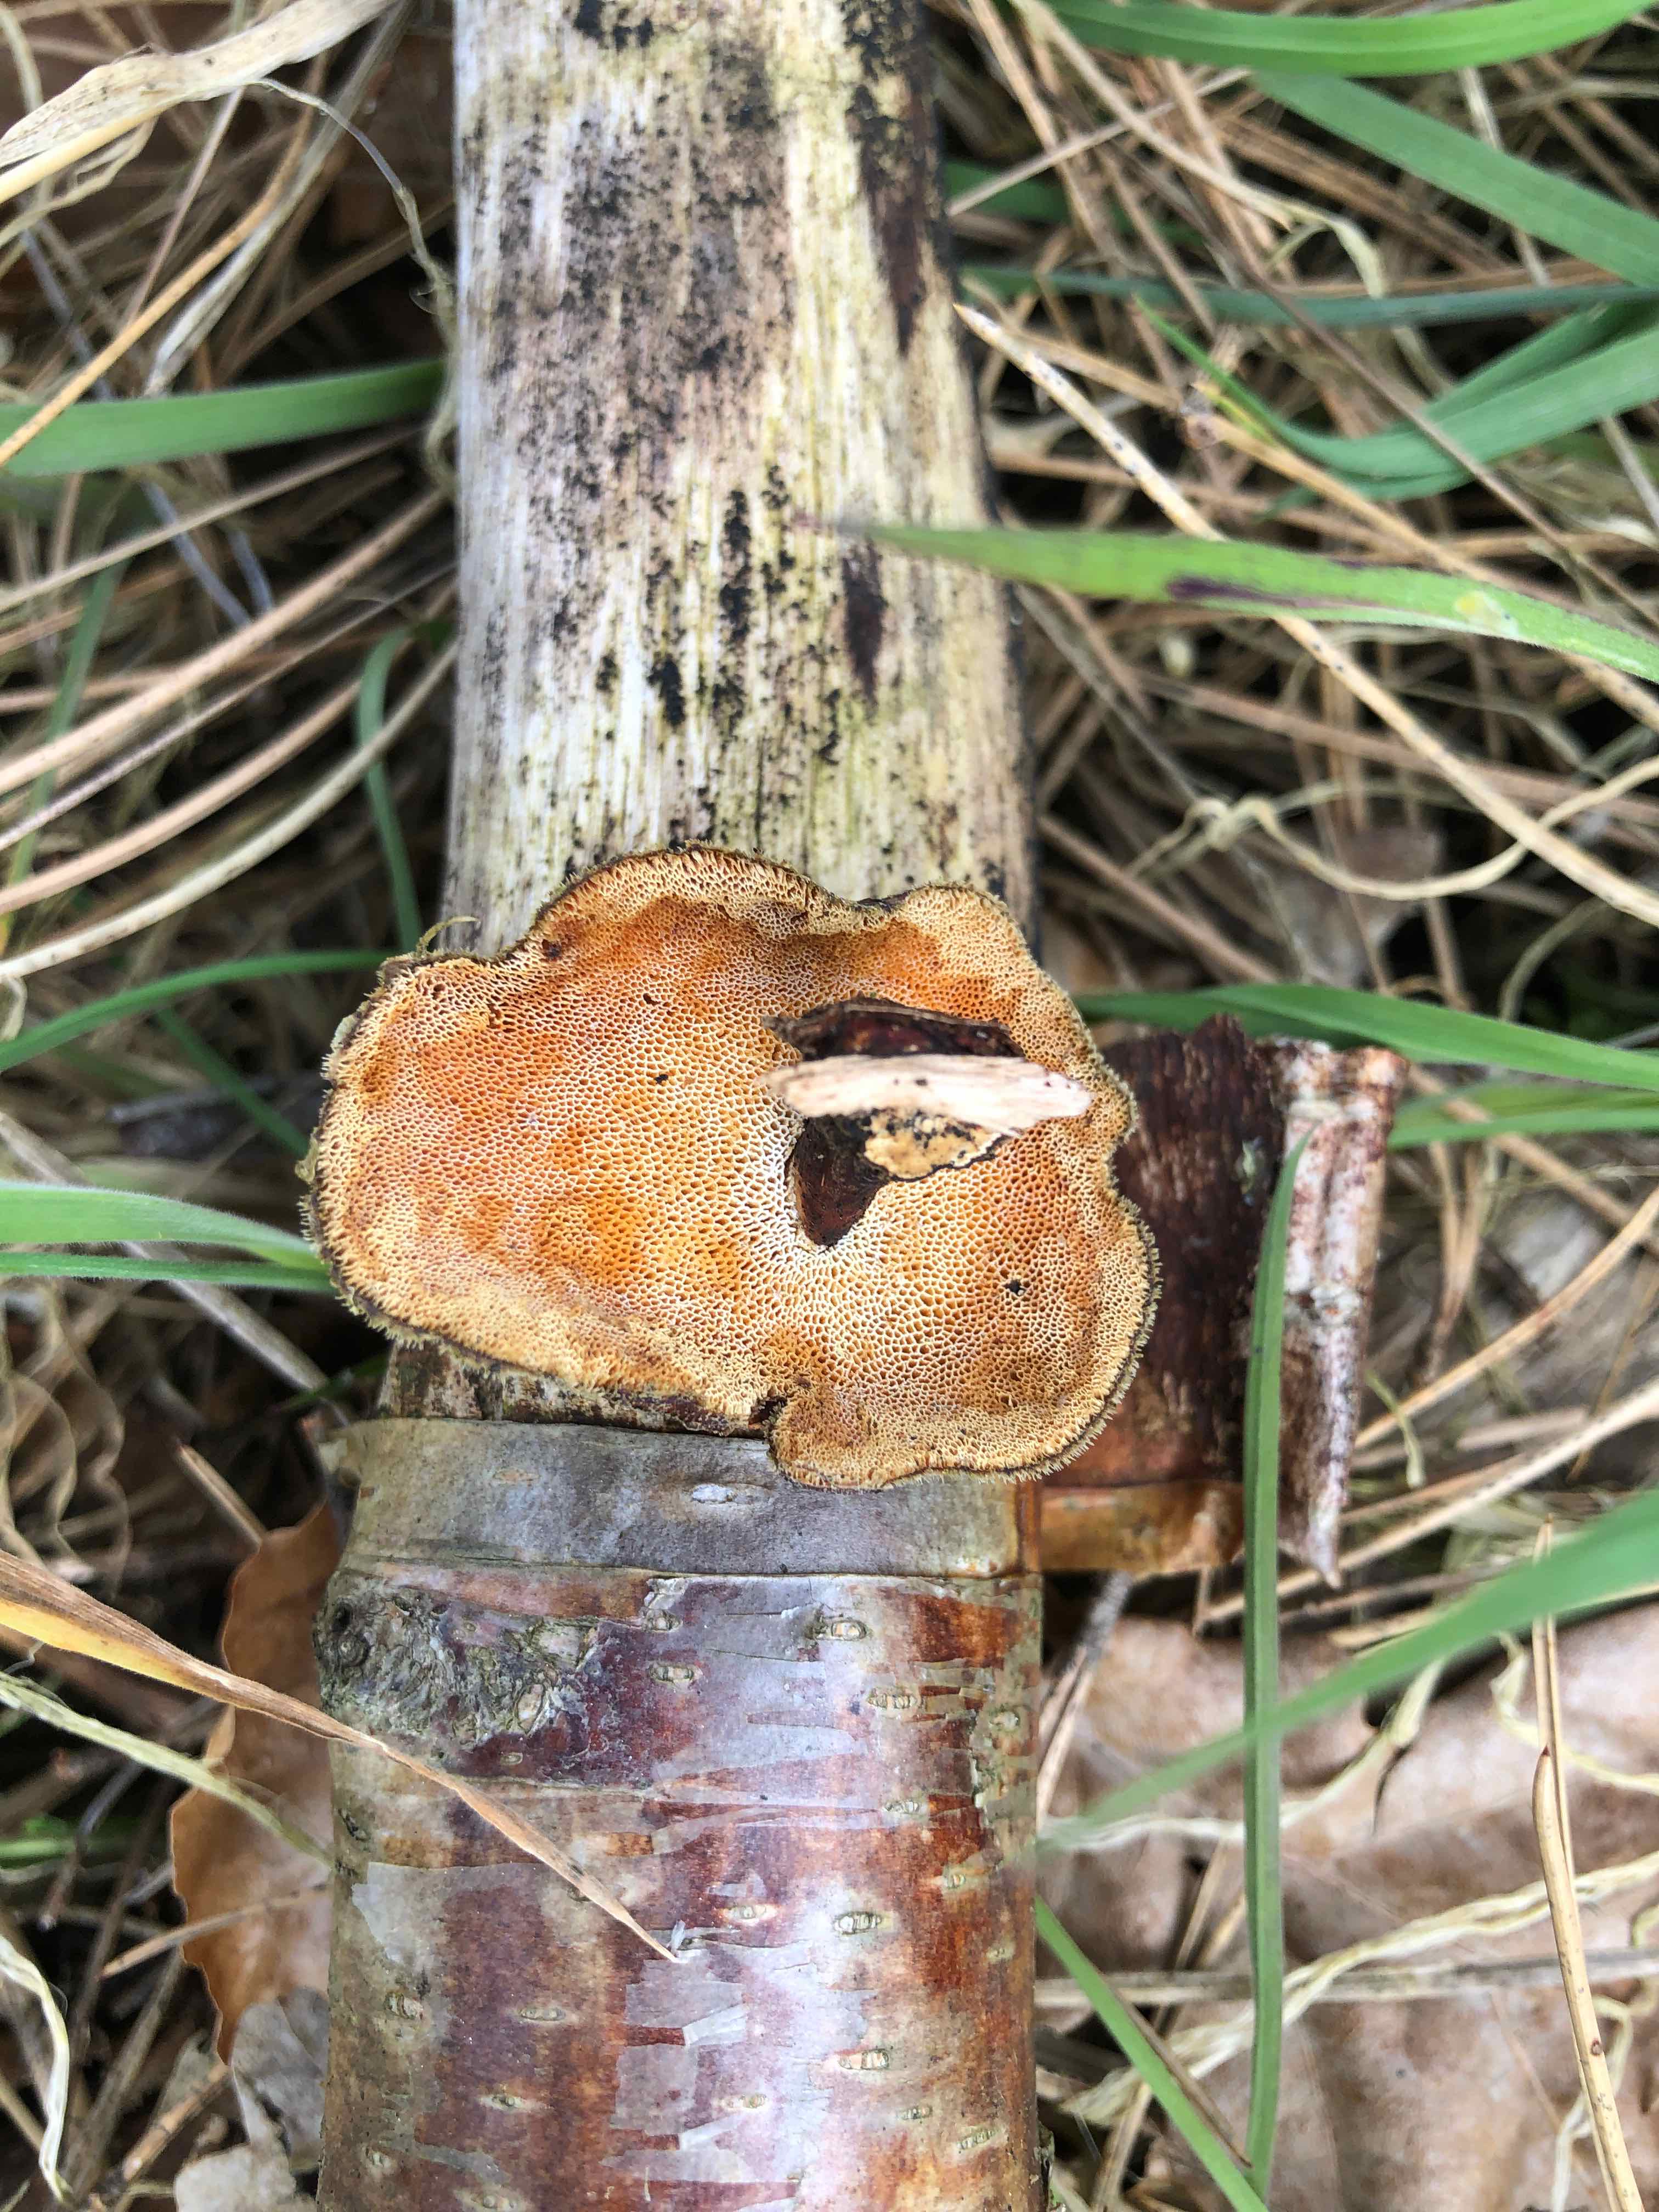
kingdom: Fungi
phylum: Basidiomycota
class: Agaricomycetes
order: Polyporales
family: Polyporaceae
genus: Lentinus
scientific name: Lentinus brumalis
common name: vinter-stilkporesvamp
